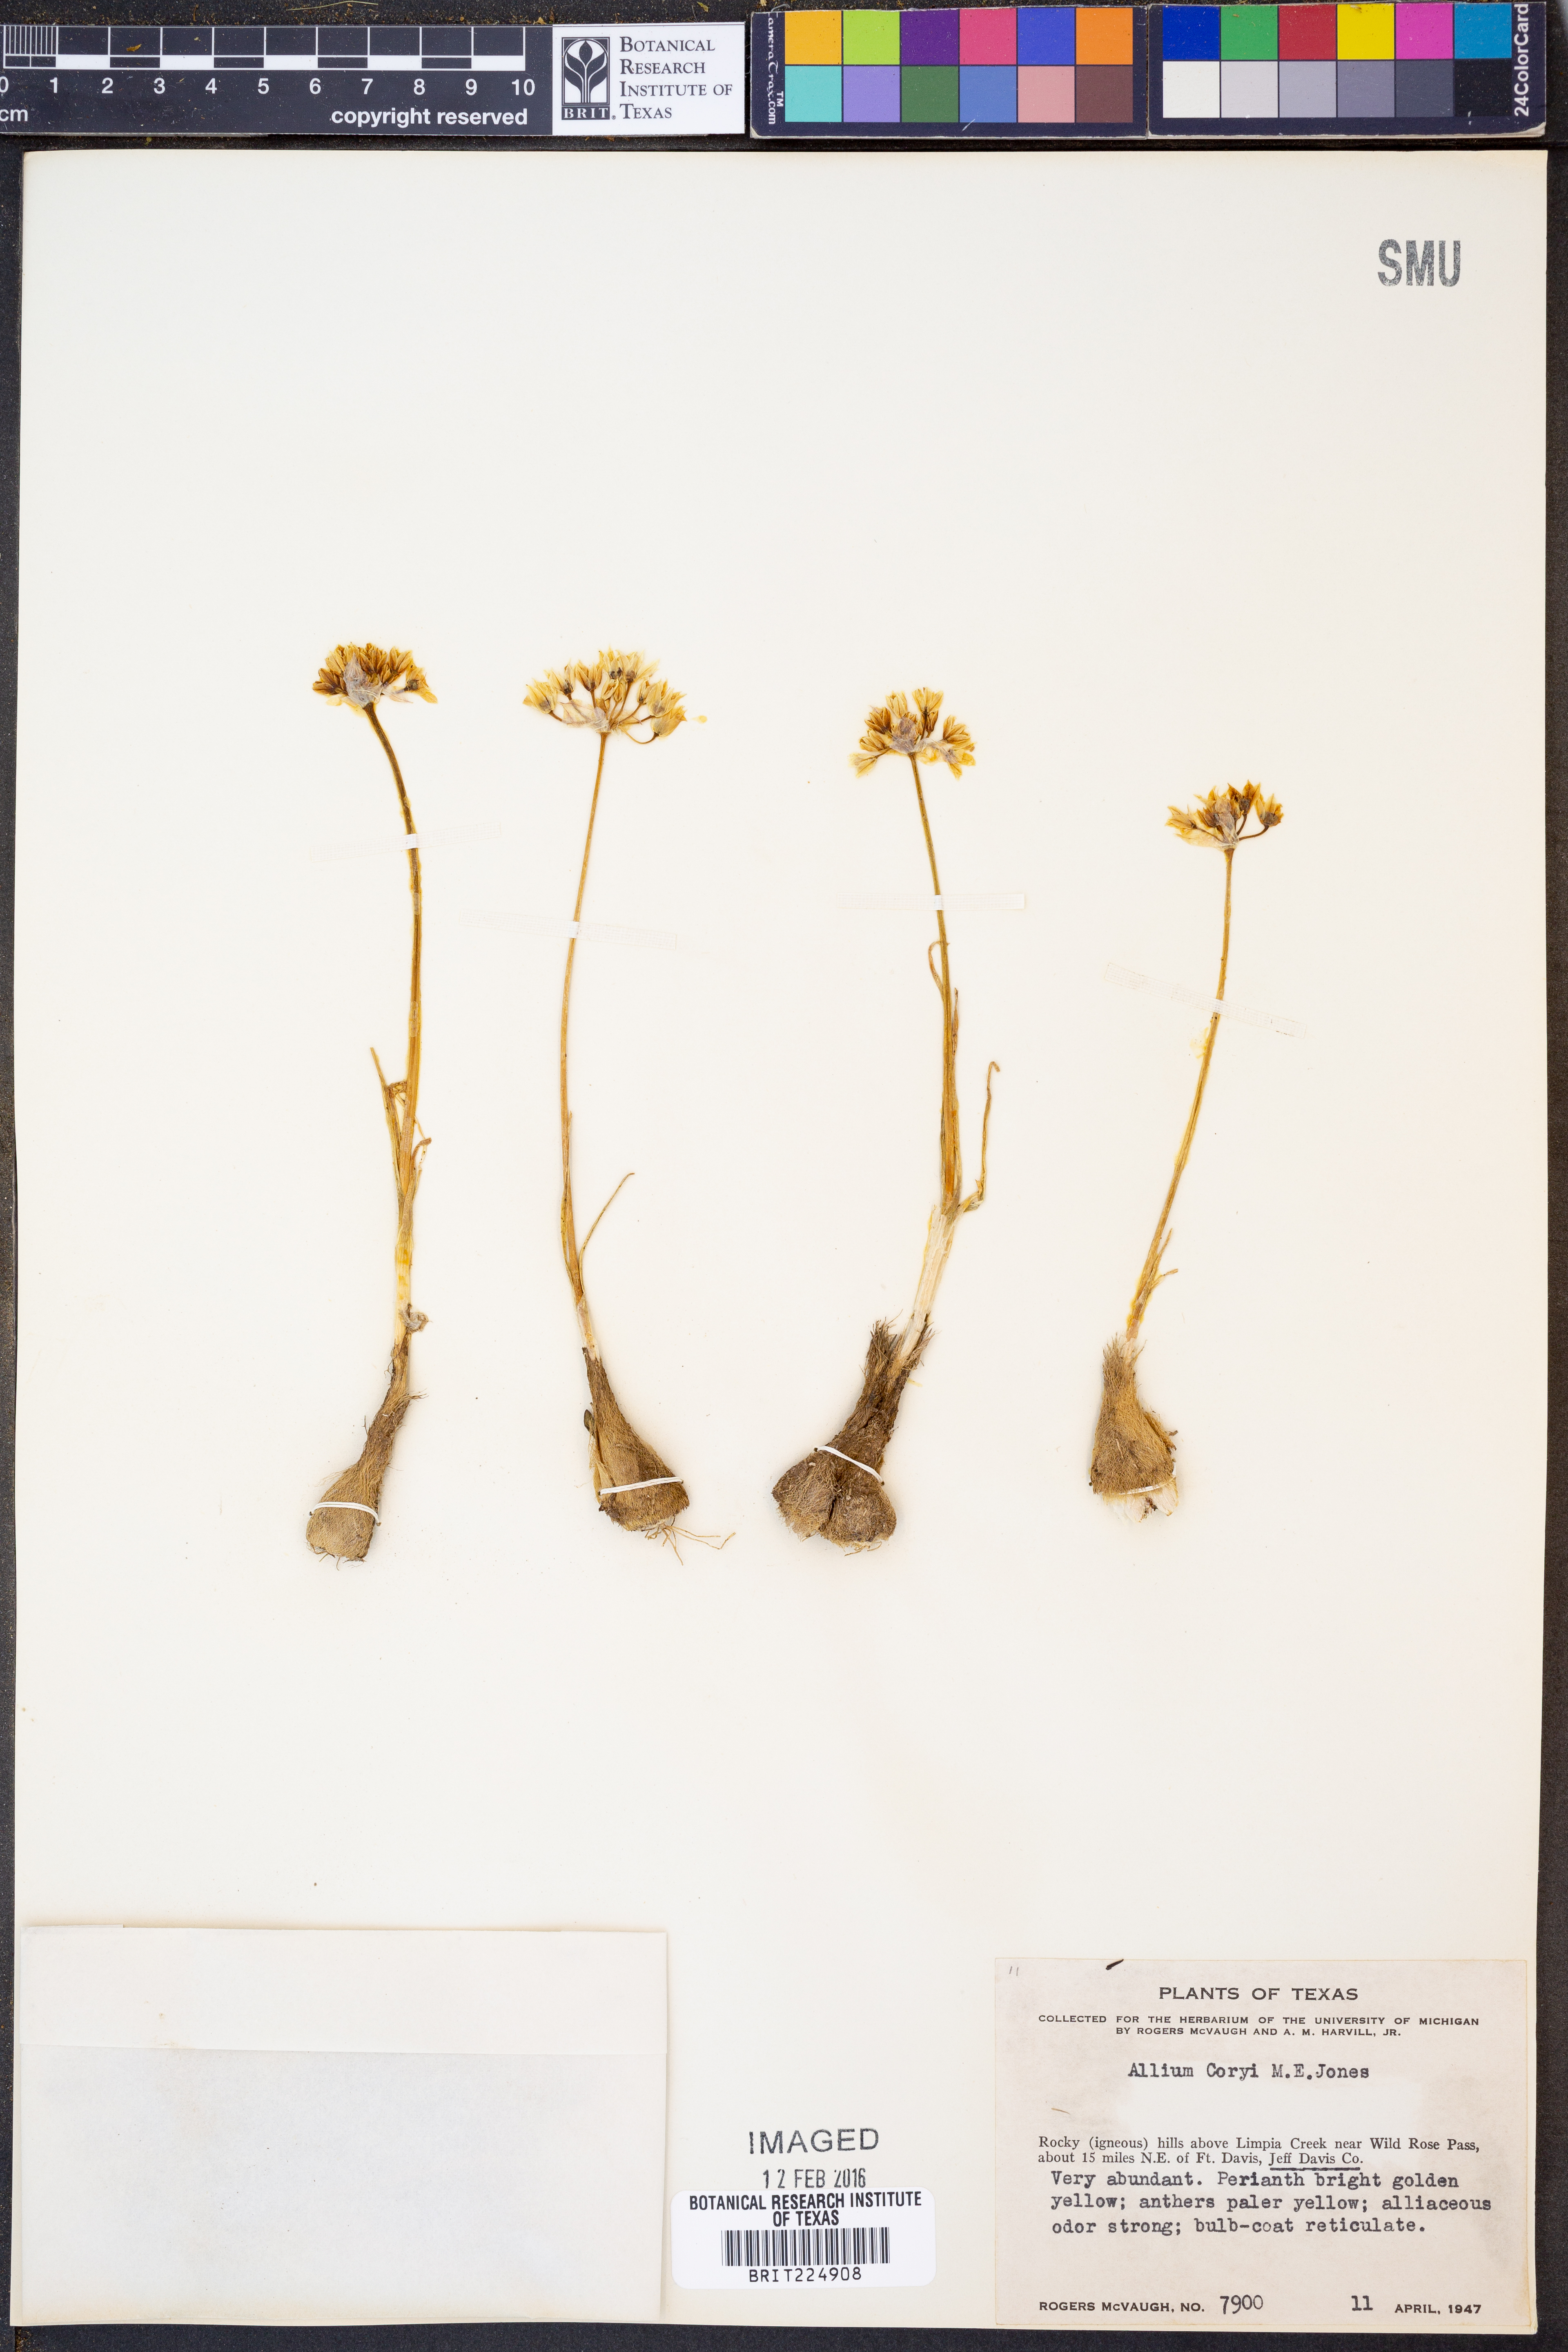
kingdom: Plantae
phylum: Tracheophyta
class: Liliopsida
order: Asparagales
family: Amaryllidaceae
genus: Allium
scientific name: Allium coryi
